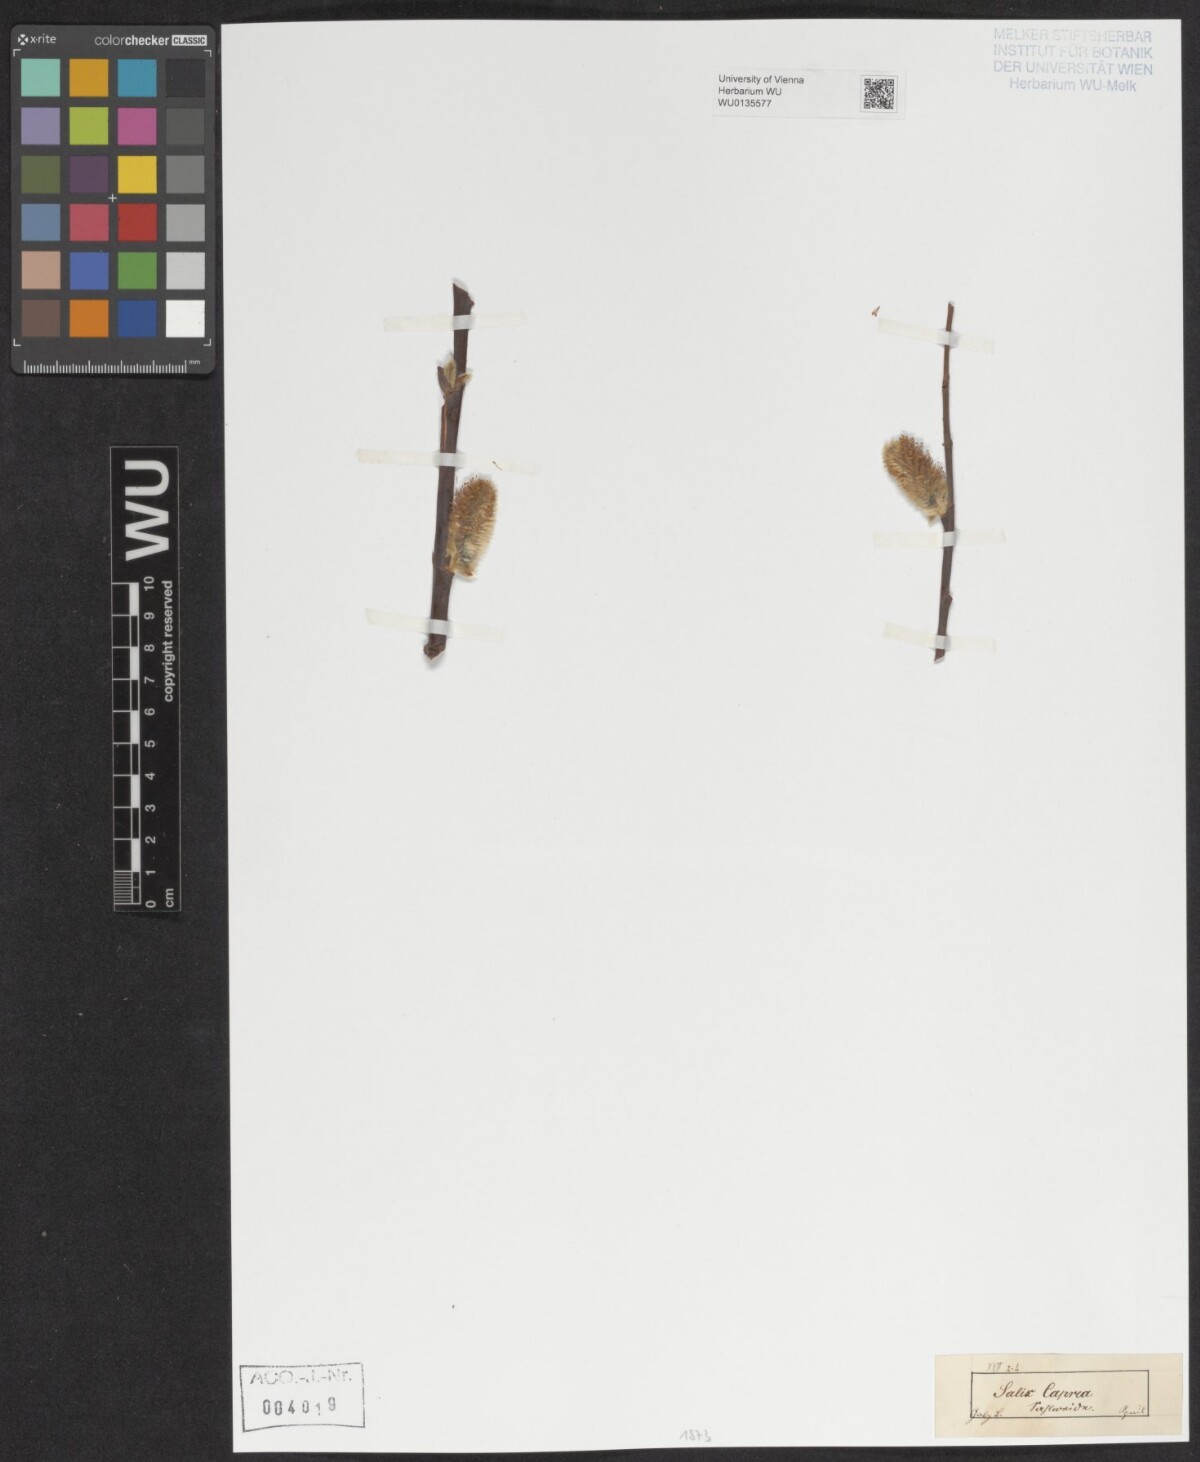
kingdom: Plantae
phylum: Tracheophyta
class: Magnoliopsida
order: Malpighiales
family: Salicaceae
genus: Salix
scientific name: Salix caprea
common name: Goat willow
